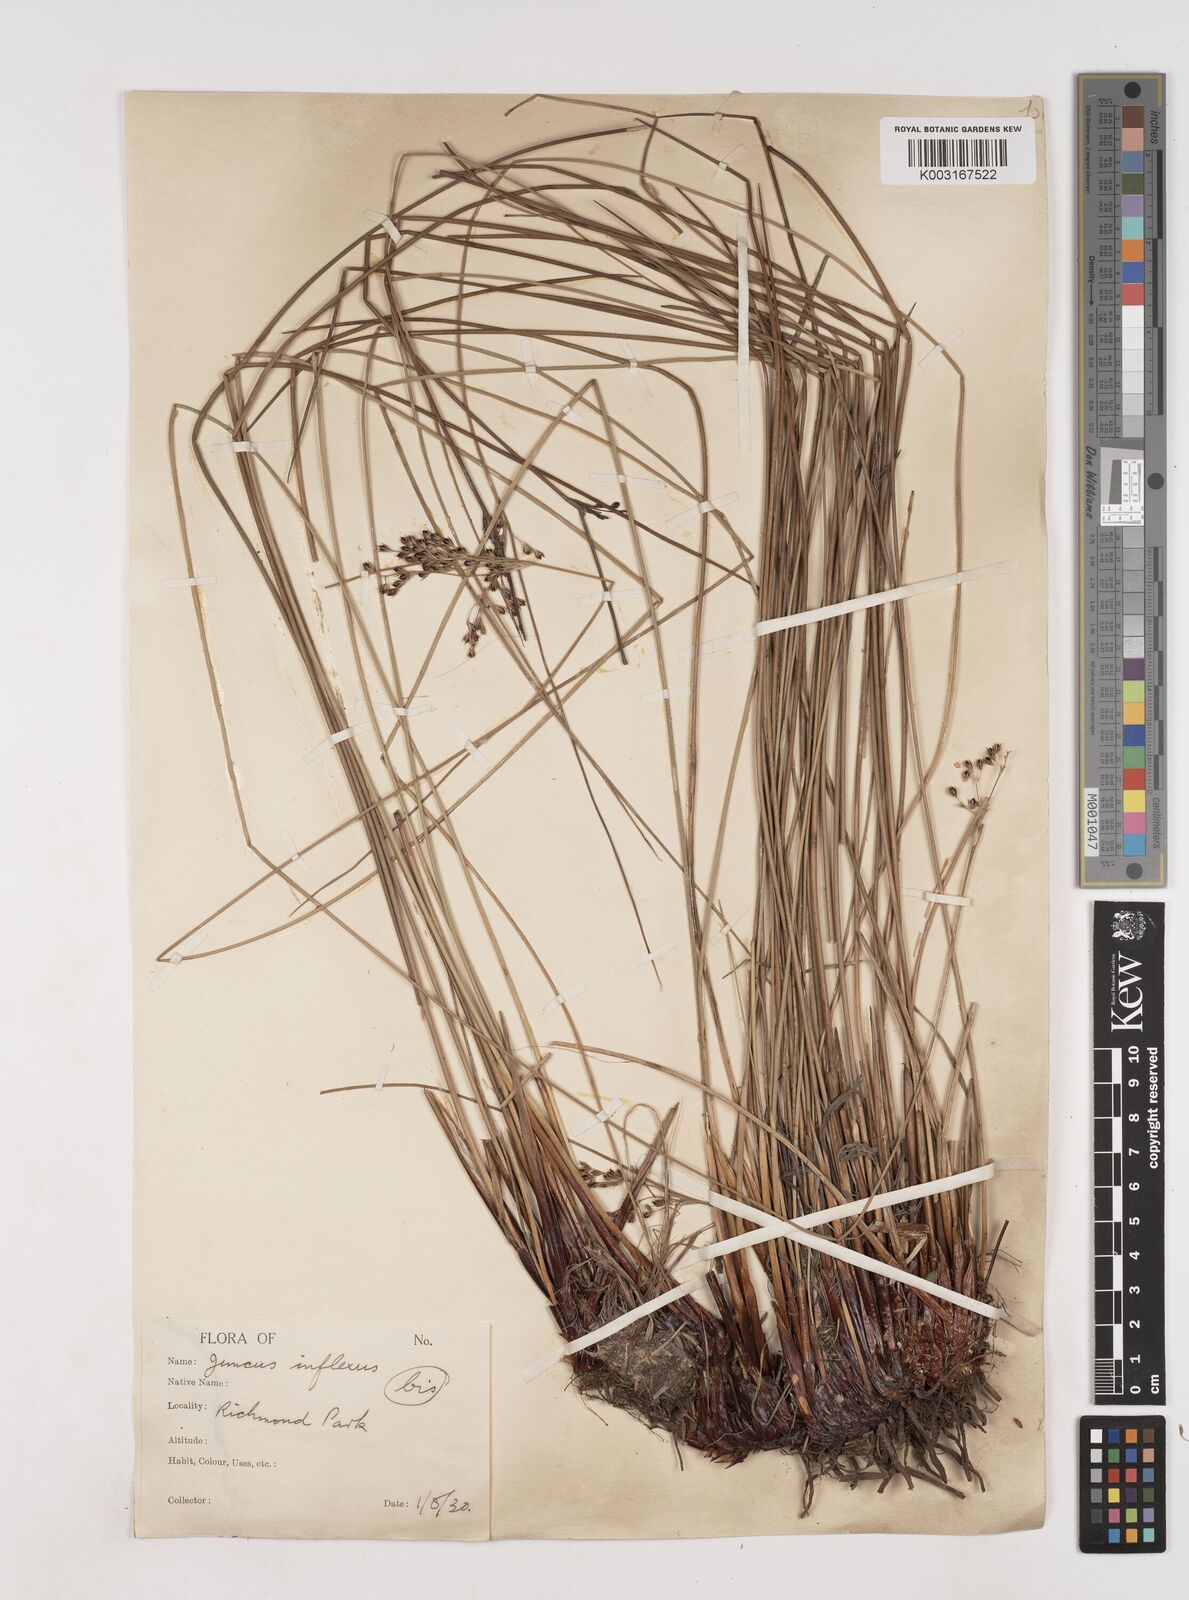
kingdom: Plantae
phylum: Tracheophyta
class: Liliopsida
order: Poales
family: Juncaceae
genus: Juncus
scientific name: Juncus inflexus
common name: Hard rush
